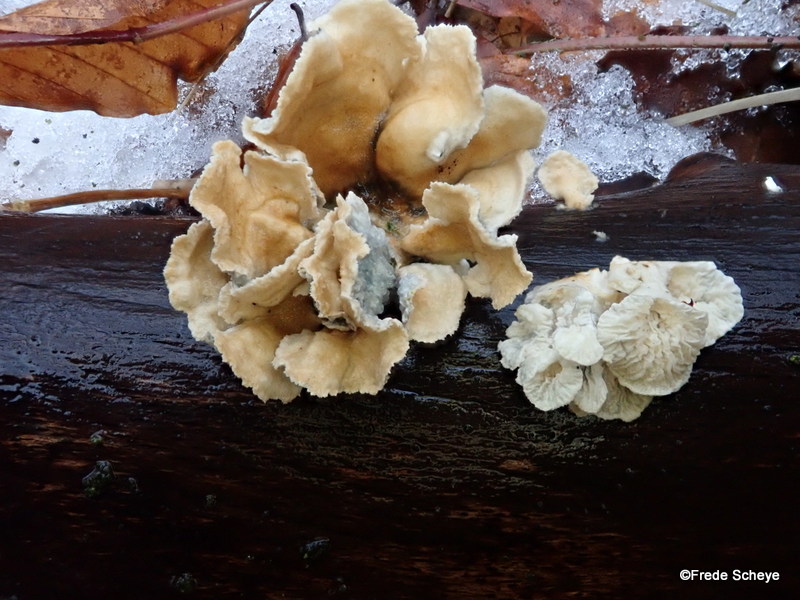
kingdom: Fungi
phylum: Basidiomycota
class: Agaricomycetes
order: Amylocorticiales
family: Amylocorticiaceae
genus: Plicaturopsis
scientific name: Plicaturopsis crispa
